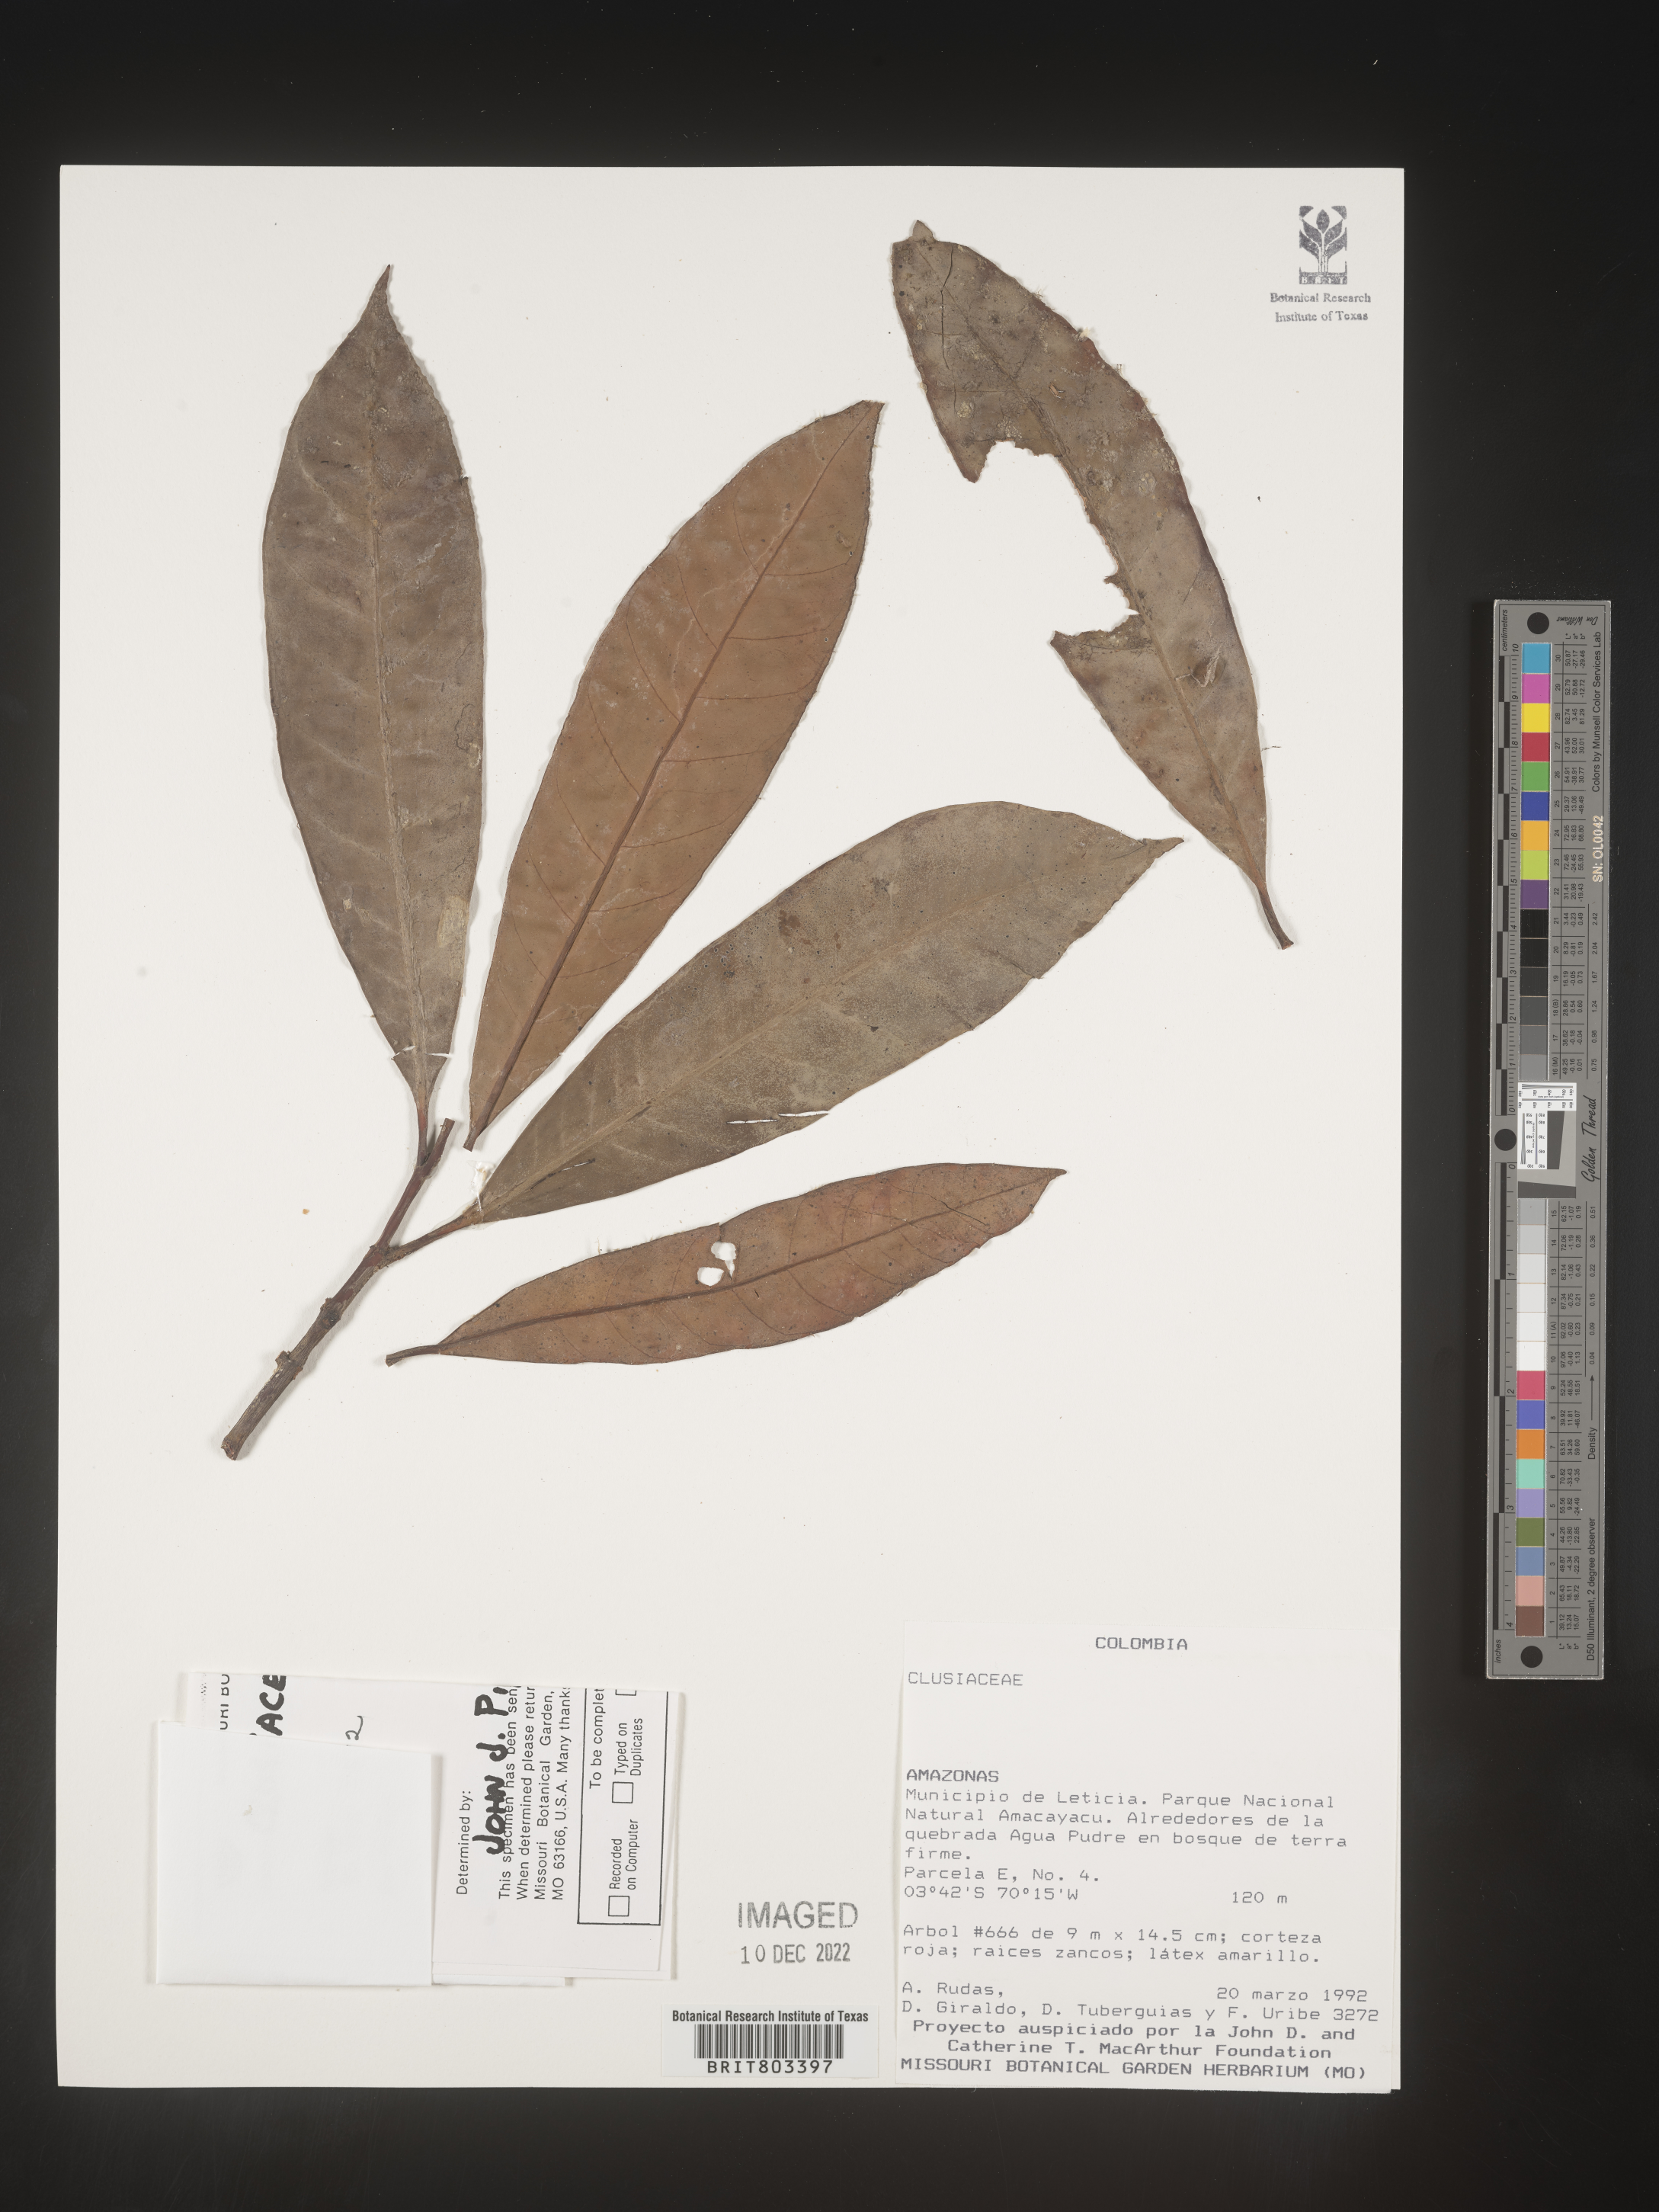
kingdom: Plantae
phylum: Tracheophyta
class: Magnoliopsida
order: Malpighiales
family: Clusiaceae
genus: Tovomita
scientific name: Tovomita
